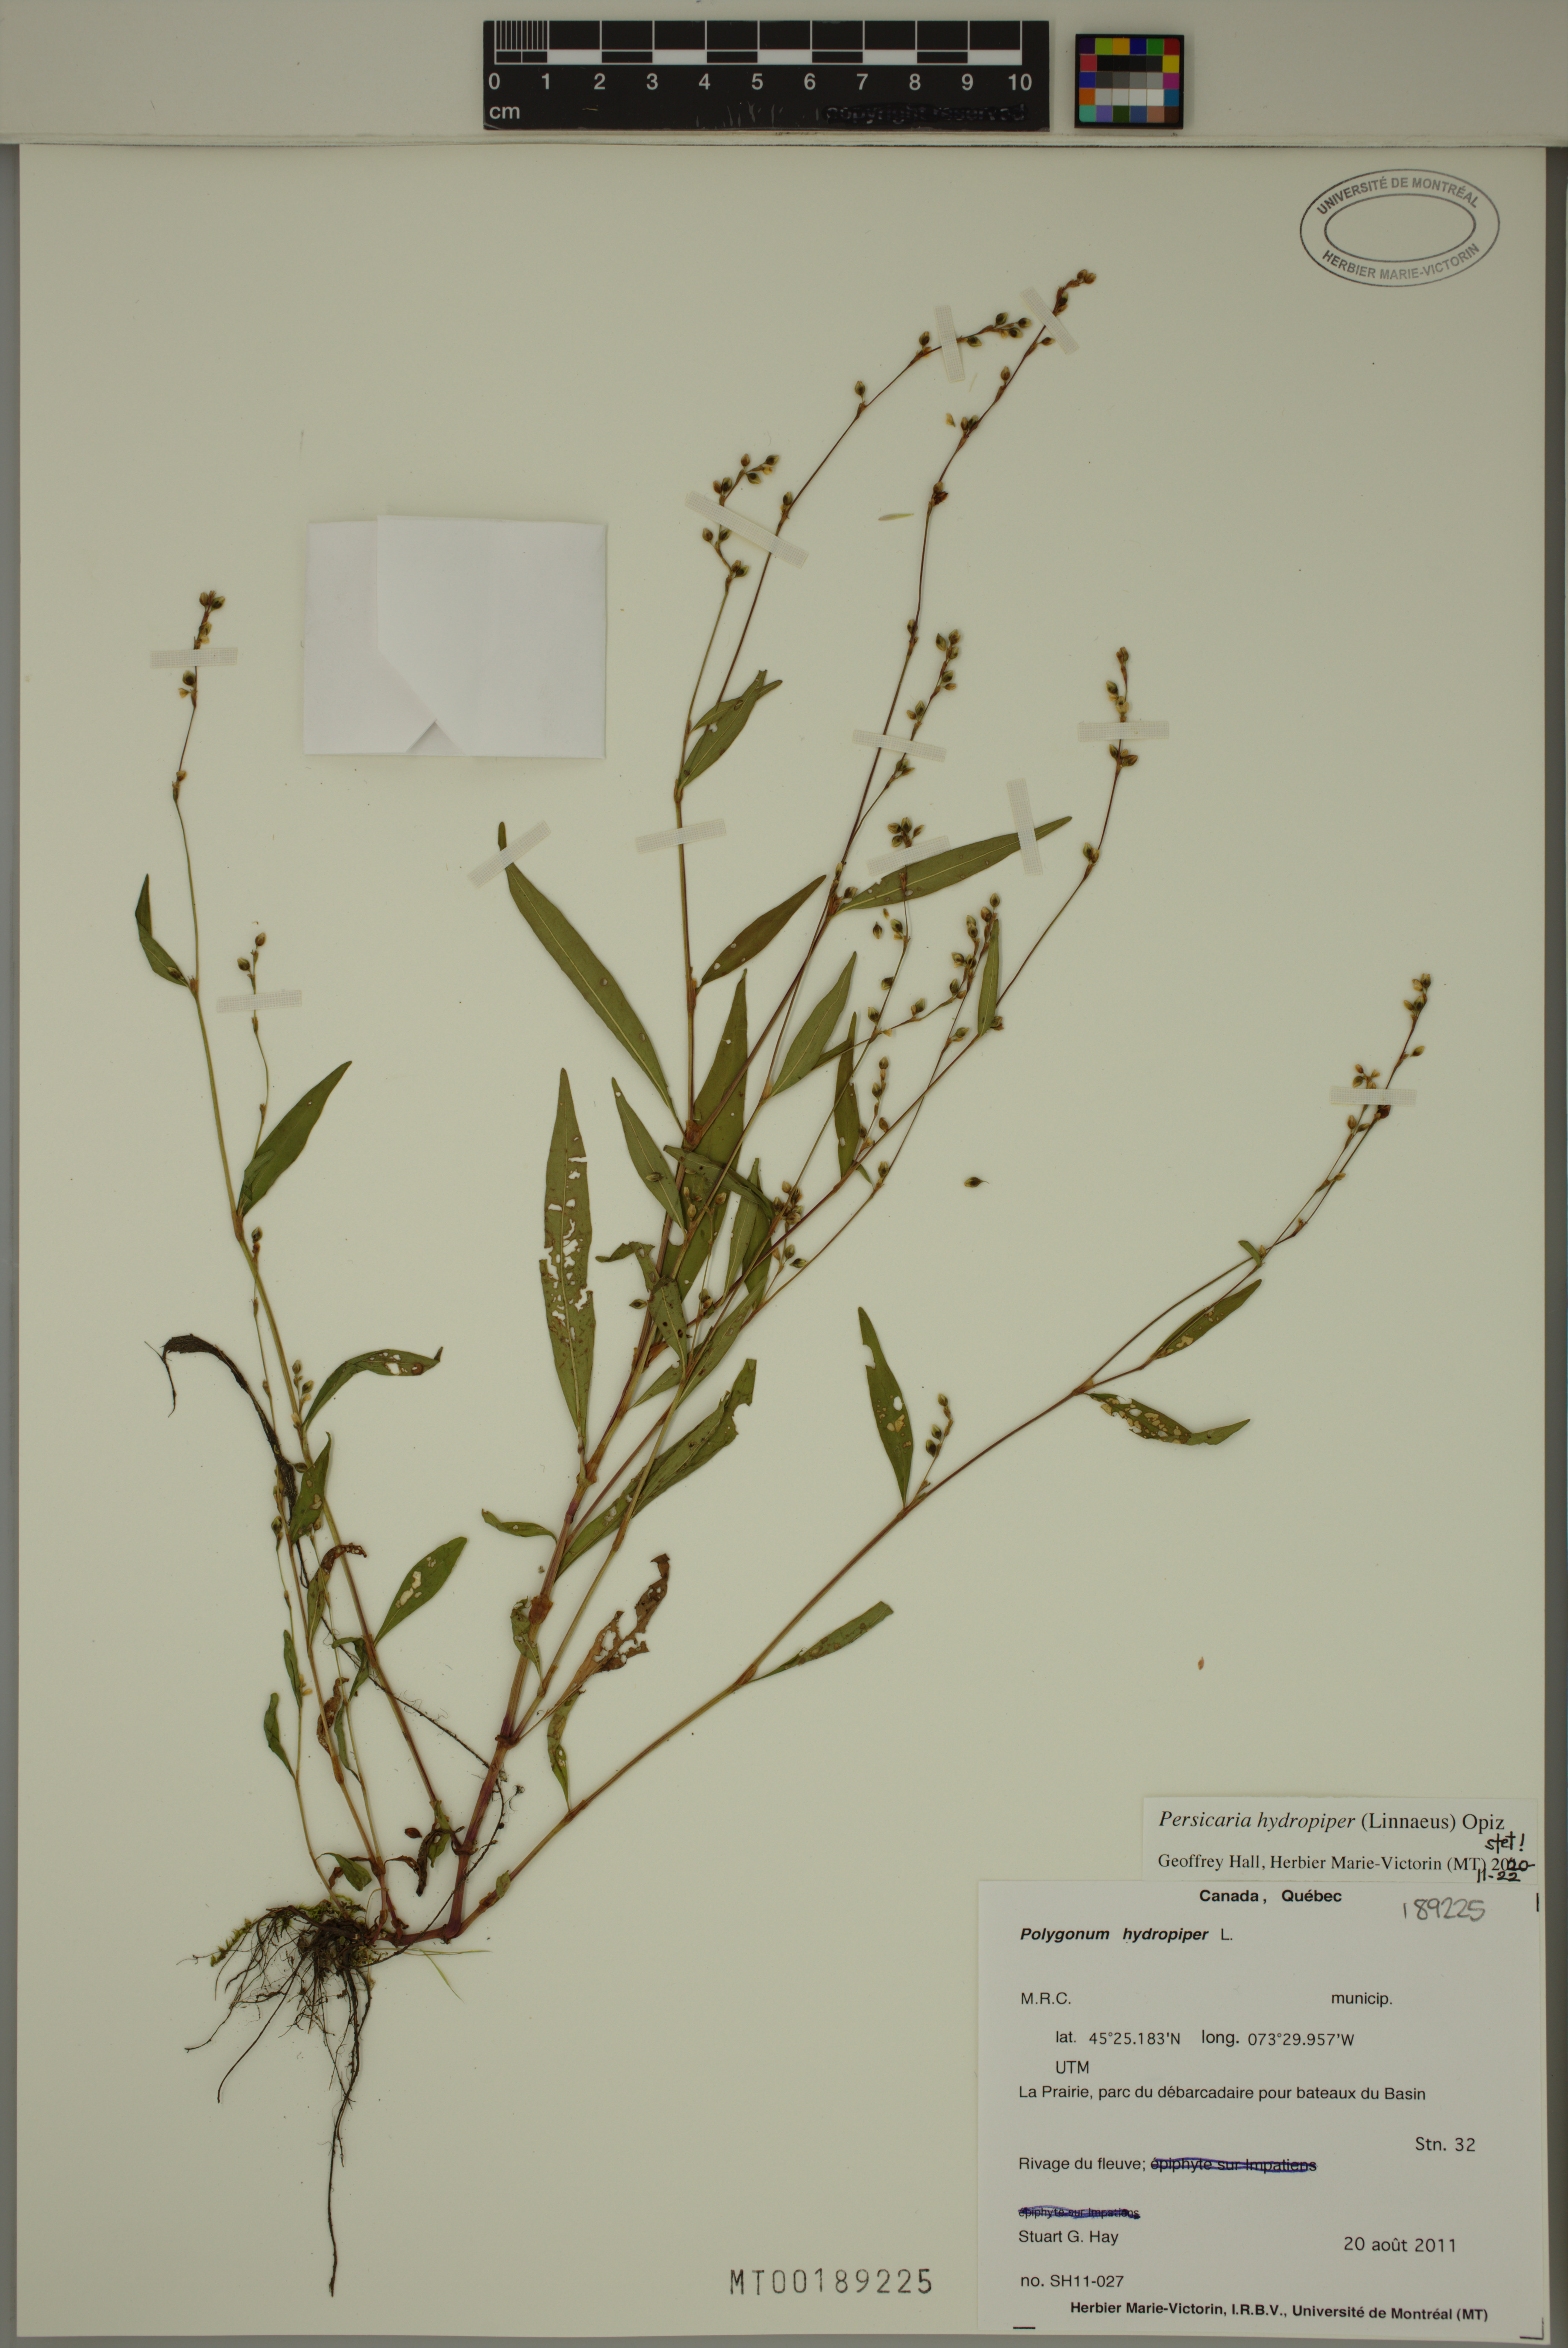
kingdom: Plantae
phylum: Tracheophyta
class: Magnoliopsida
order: Caryophyllales
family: Polygonaceae
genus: Persicaria
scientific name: Persicaria hydropiper
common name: Water-pepper
